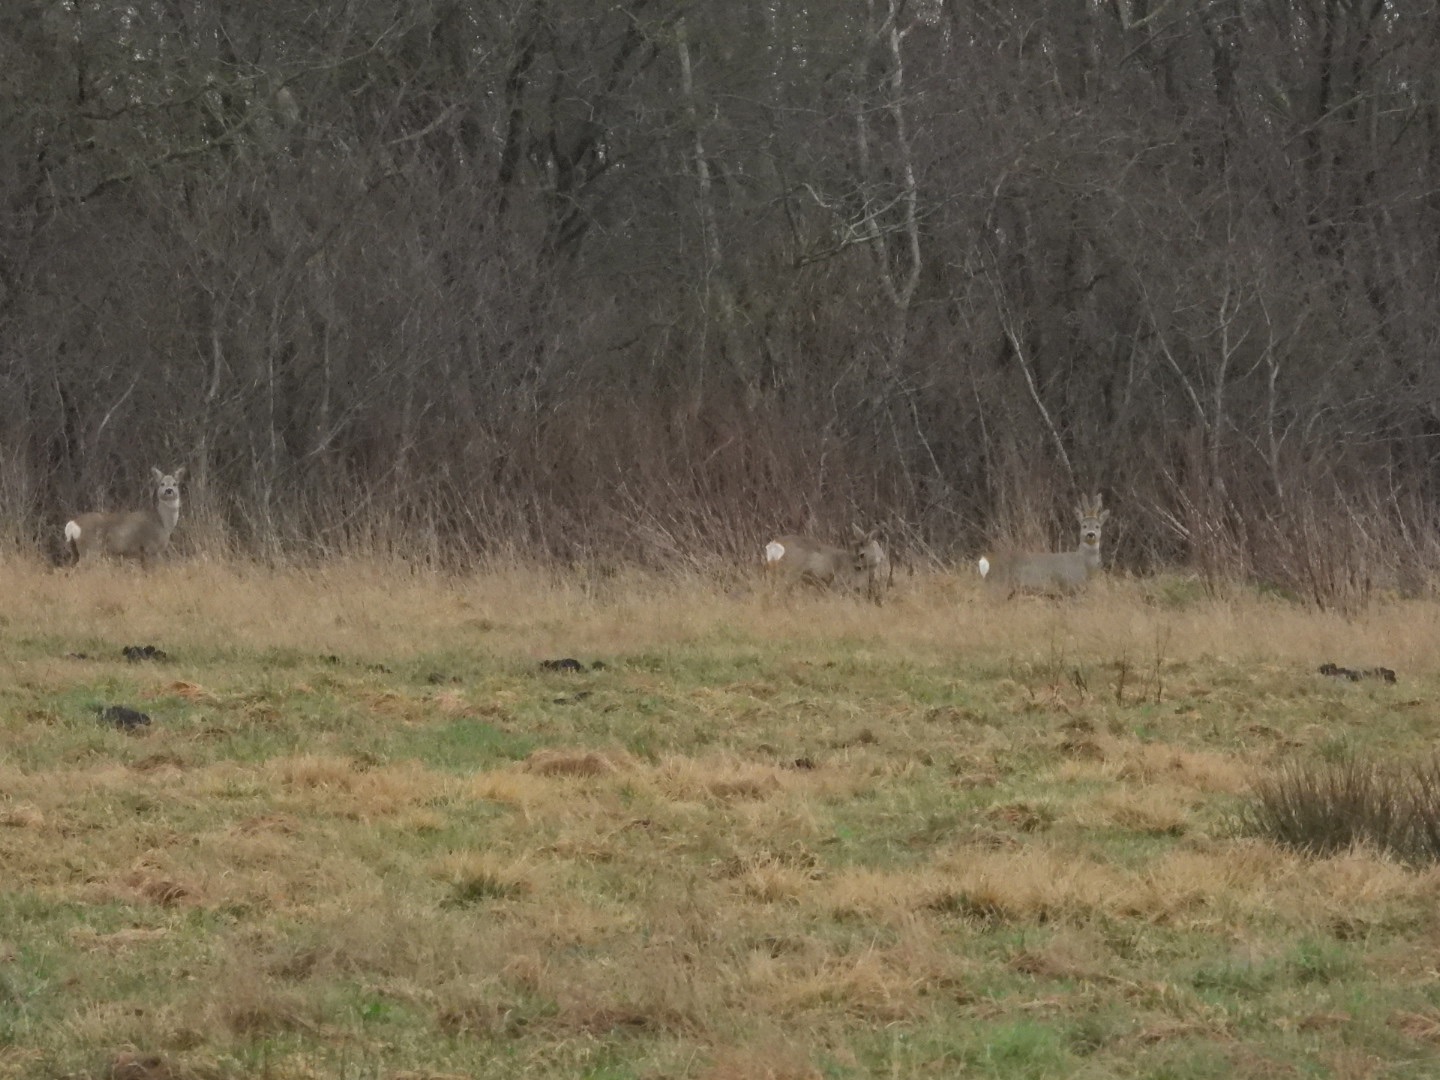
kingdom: Animalia
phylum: Chordata
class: Mammalia
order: Artiodactyla
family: Cervidae
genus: Capreolus
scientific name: Capreolus capreolus
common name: Rådyr
